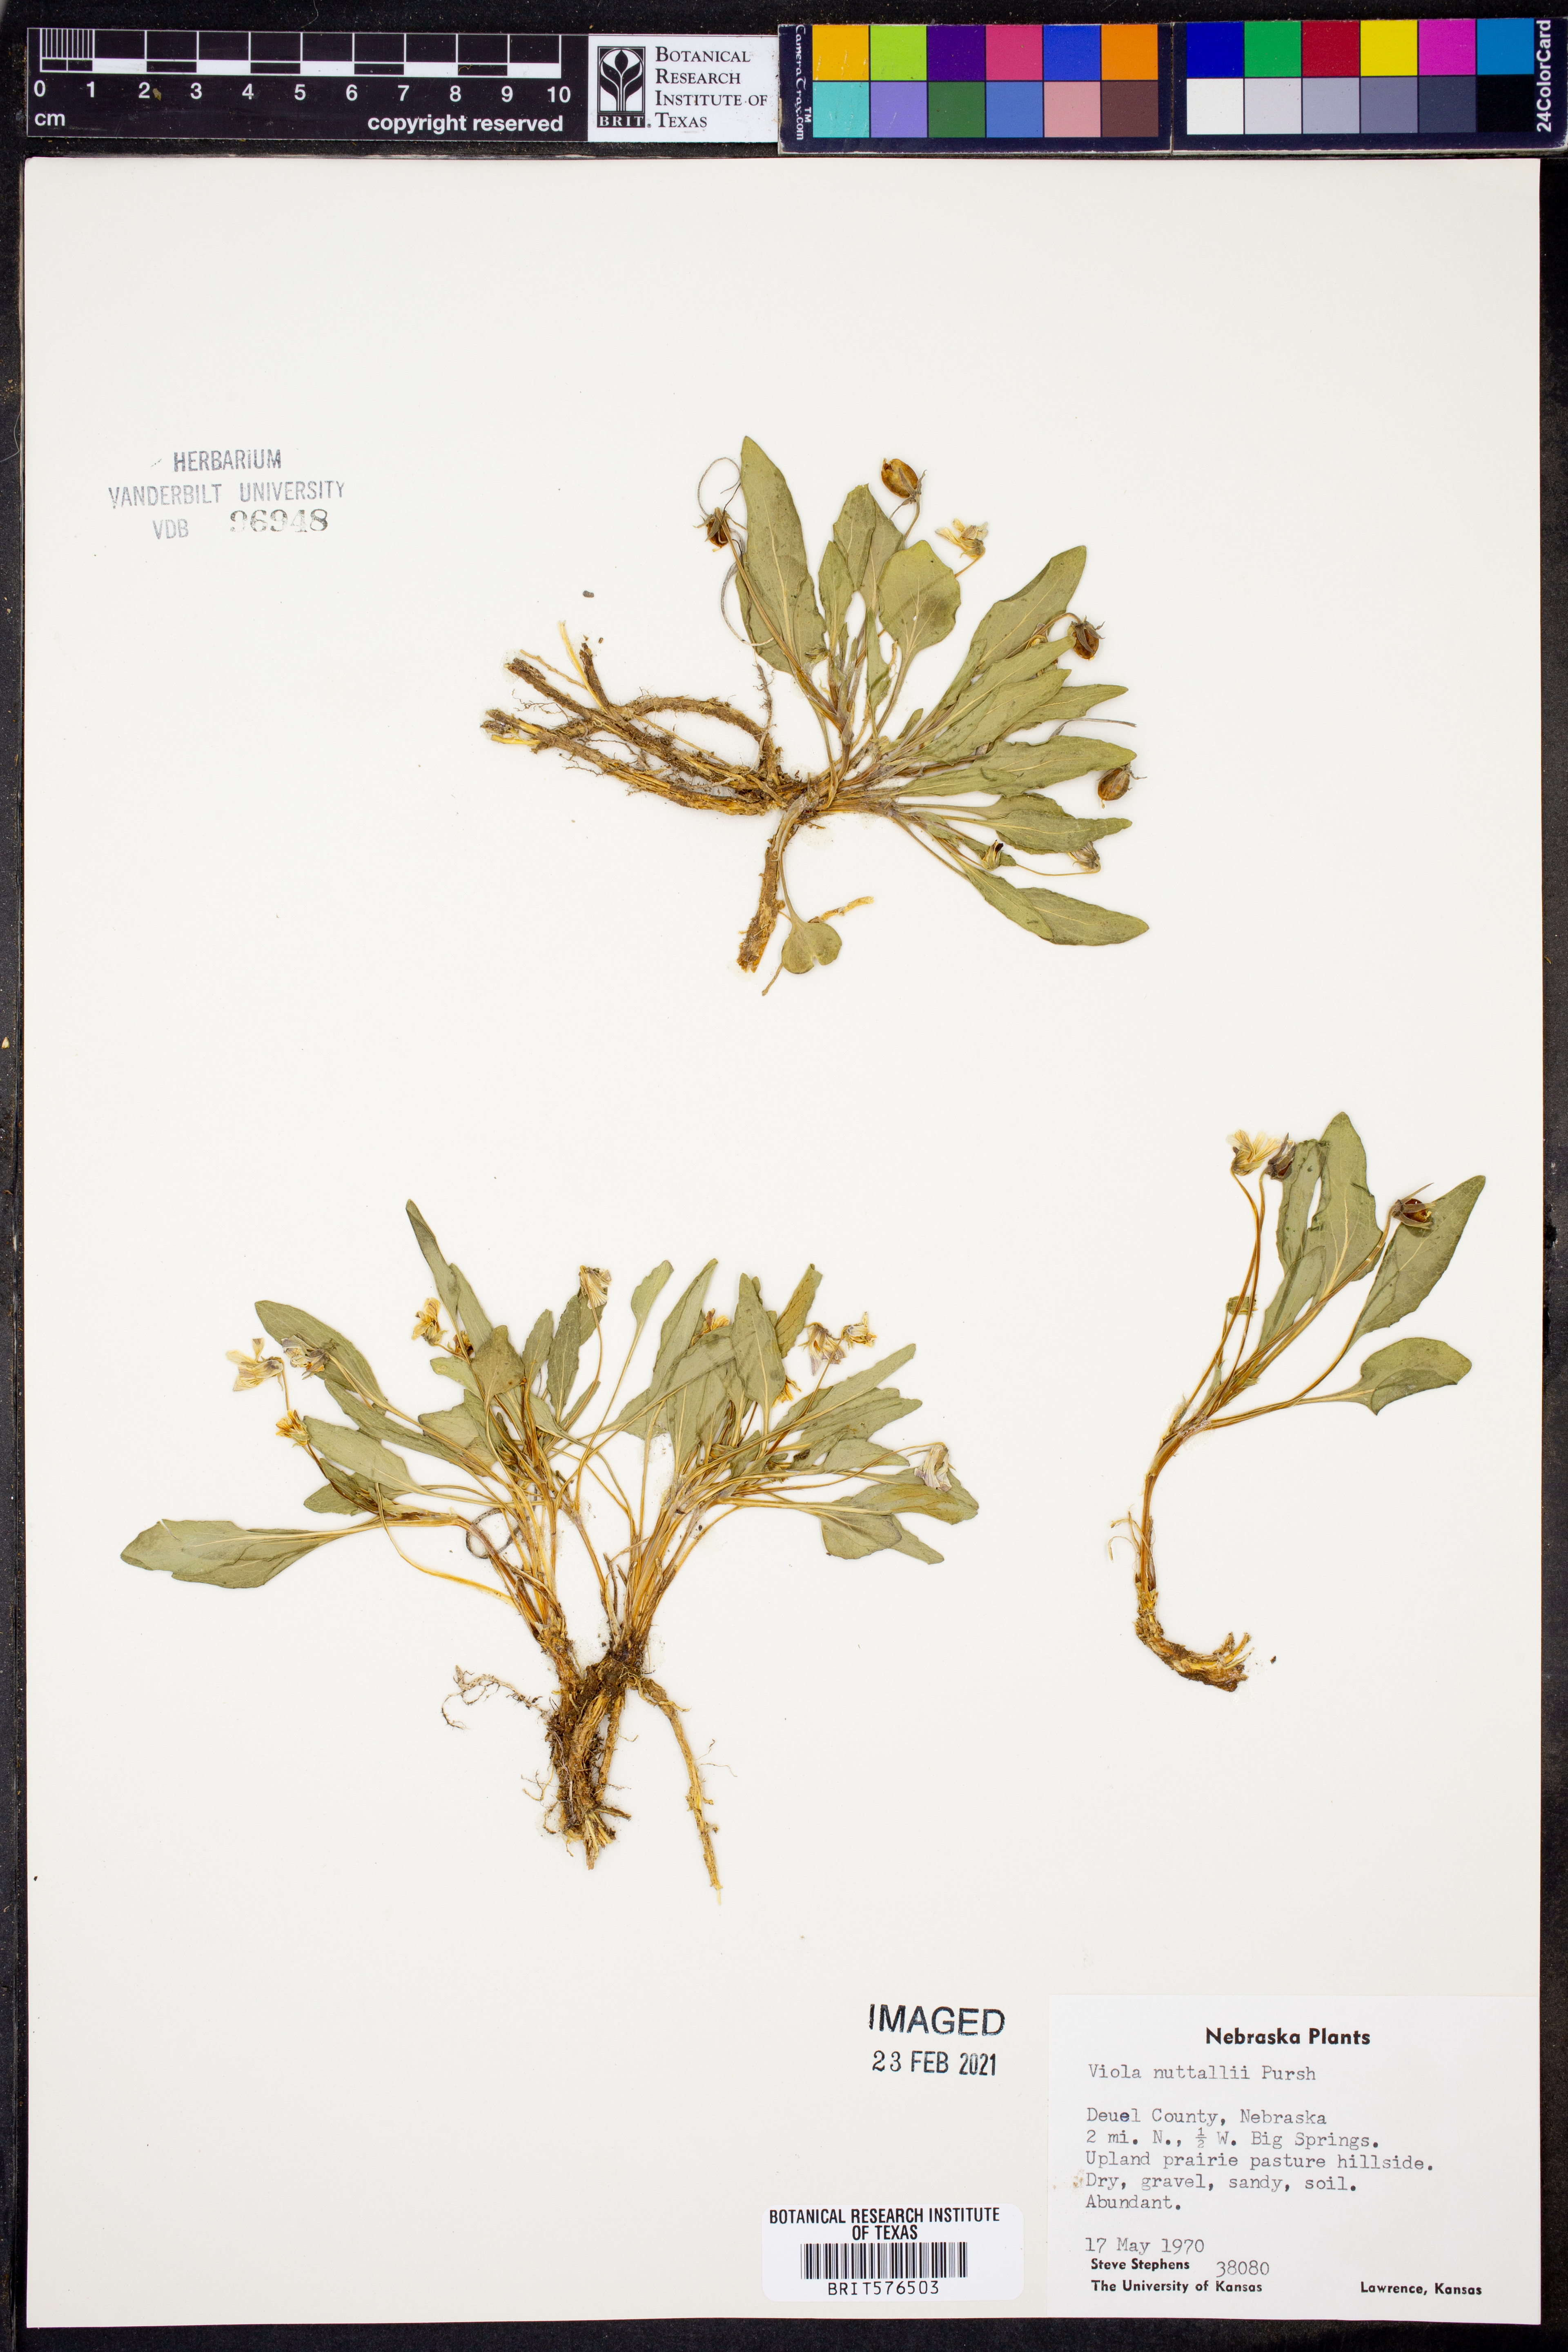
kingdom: Plantae
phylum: Tracheophyta
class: Magnoliopsida
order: Malpighiales
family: Violaceae
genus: Viola
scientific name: Viola nuttallii
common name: Yellow prairie violet
